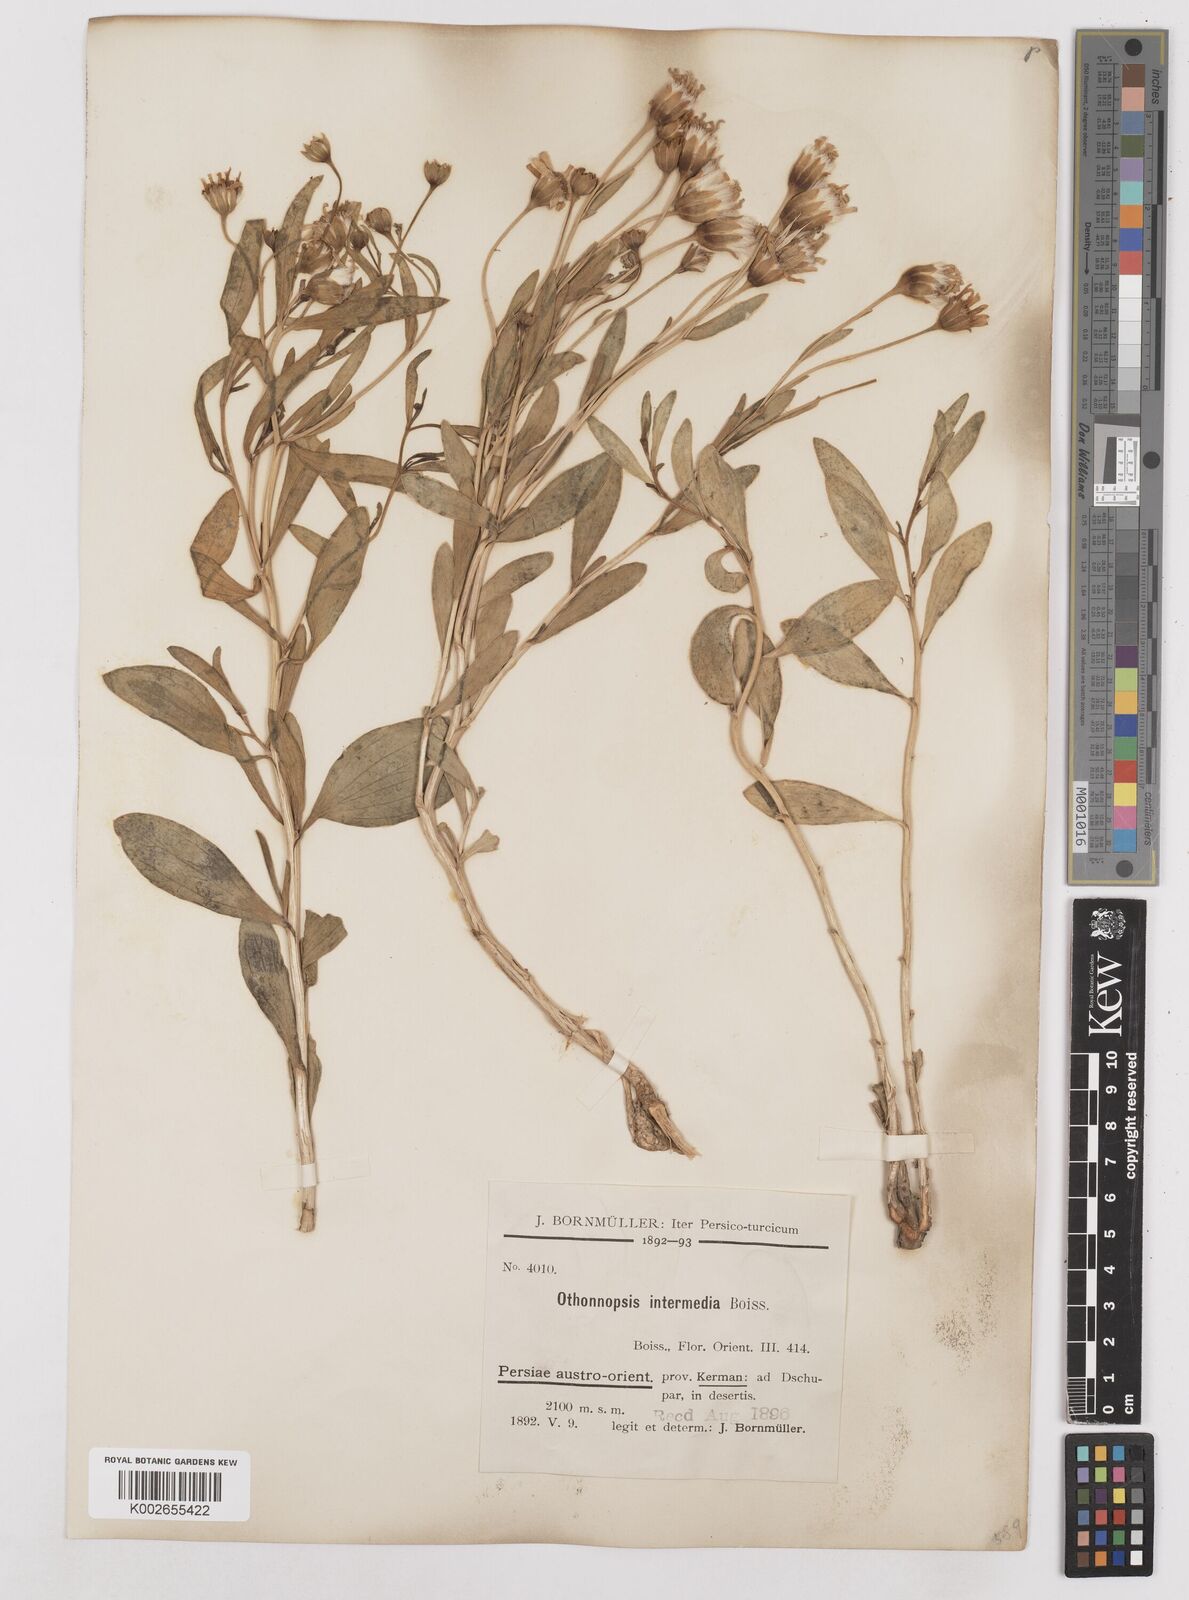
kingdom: Plantae
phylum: Tracheophyta
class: Magnoliopsida
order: Asterales
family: Asteraceae
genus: Hertia
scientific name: Hertia intermedia
